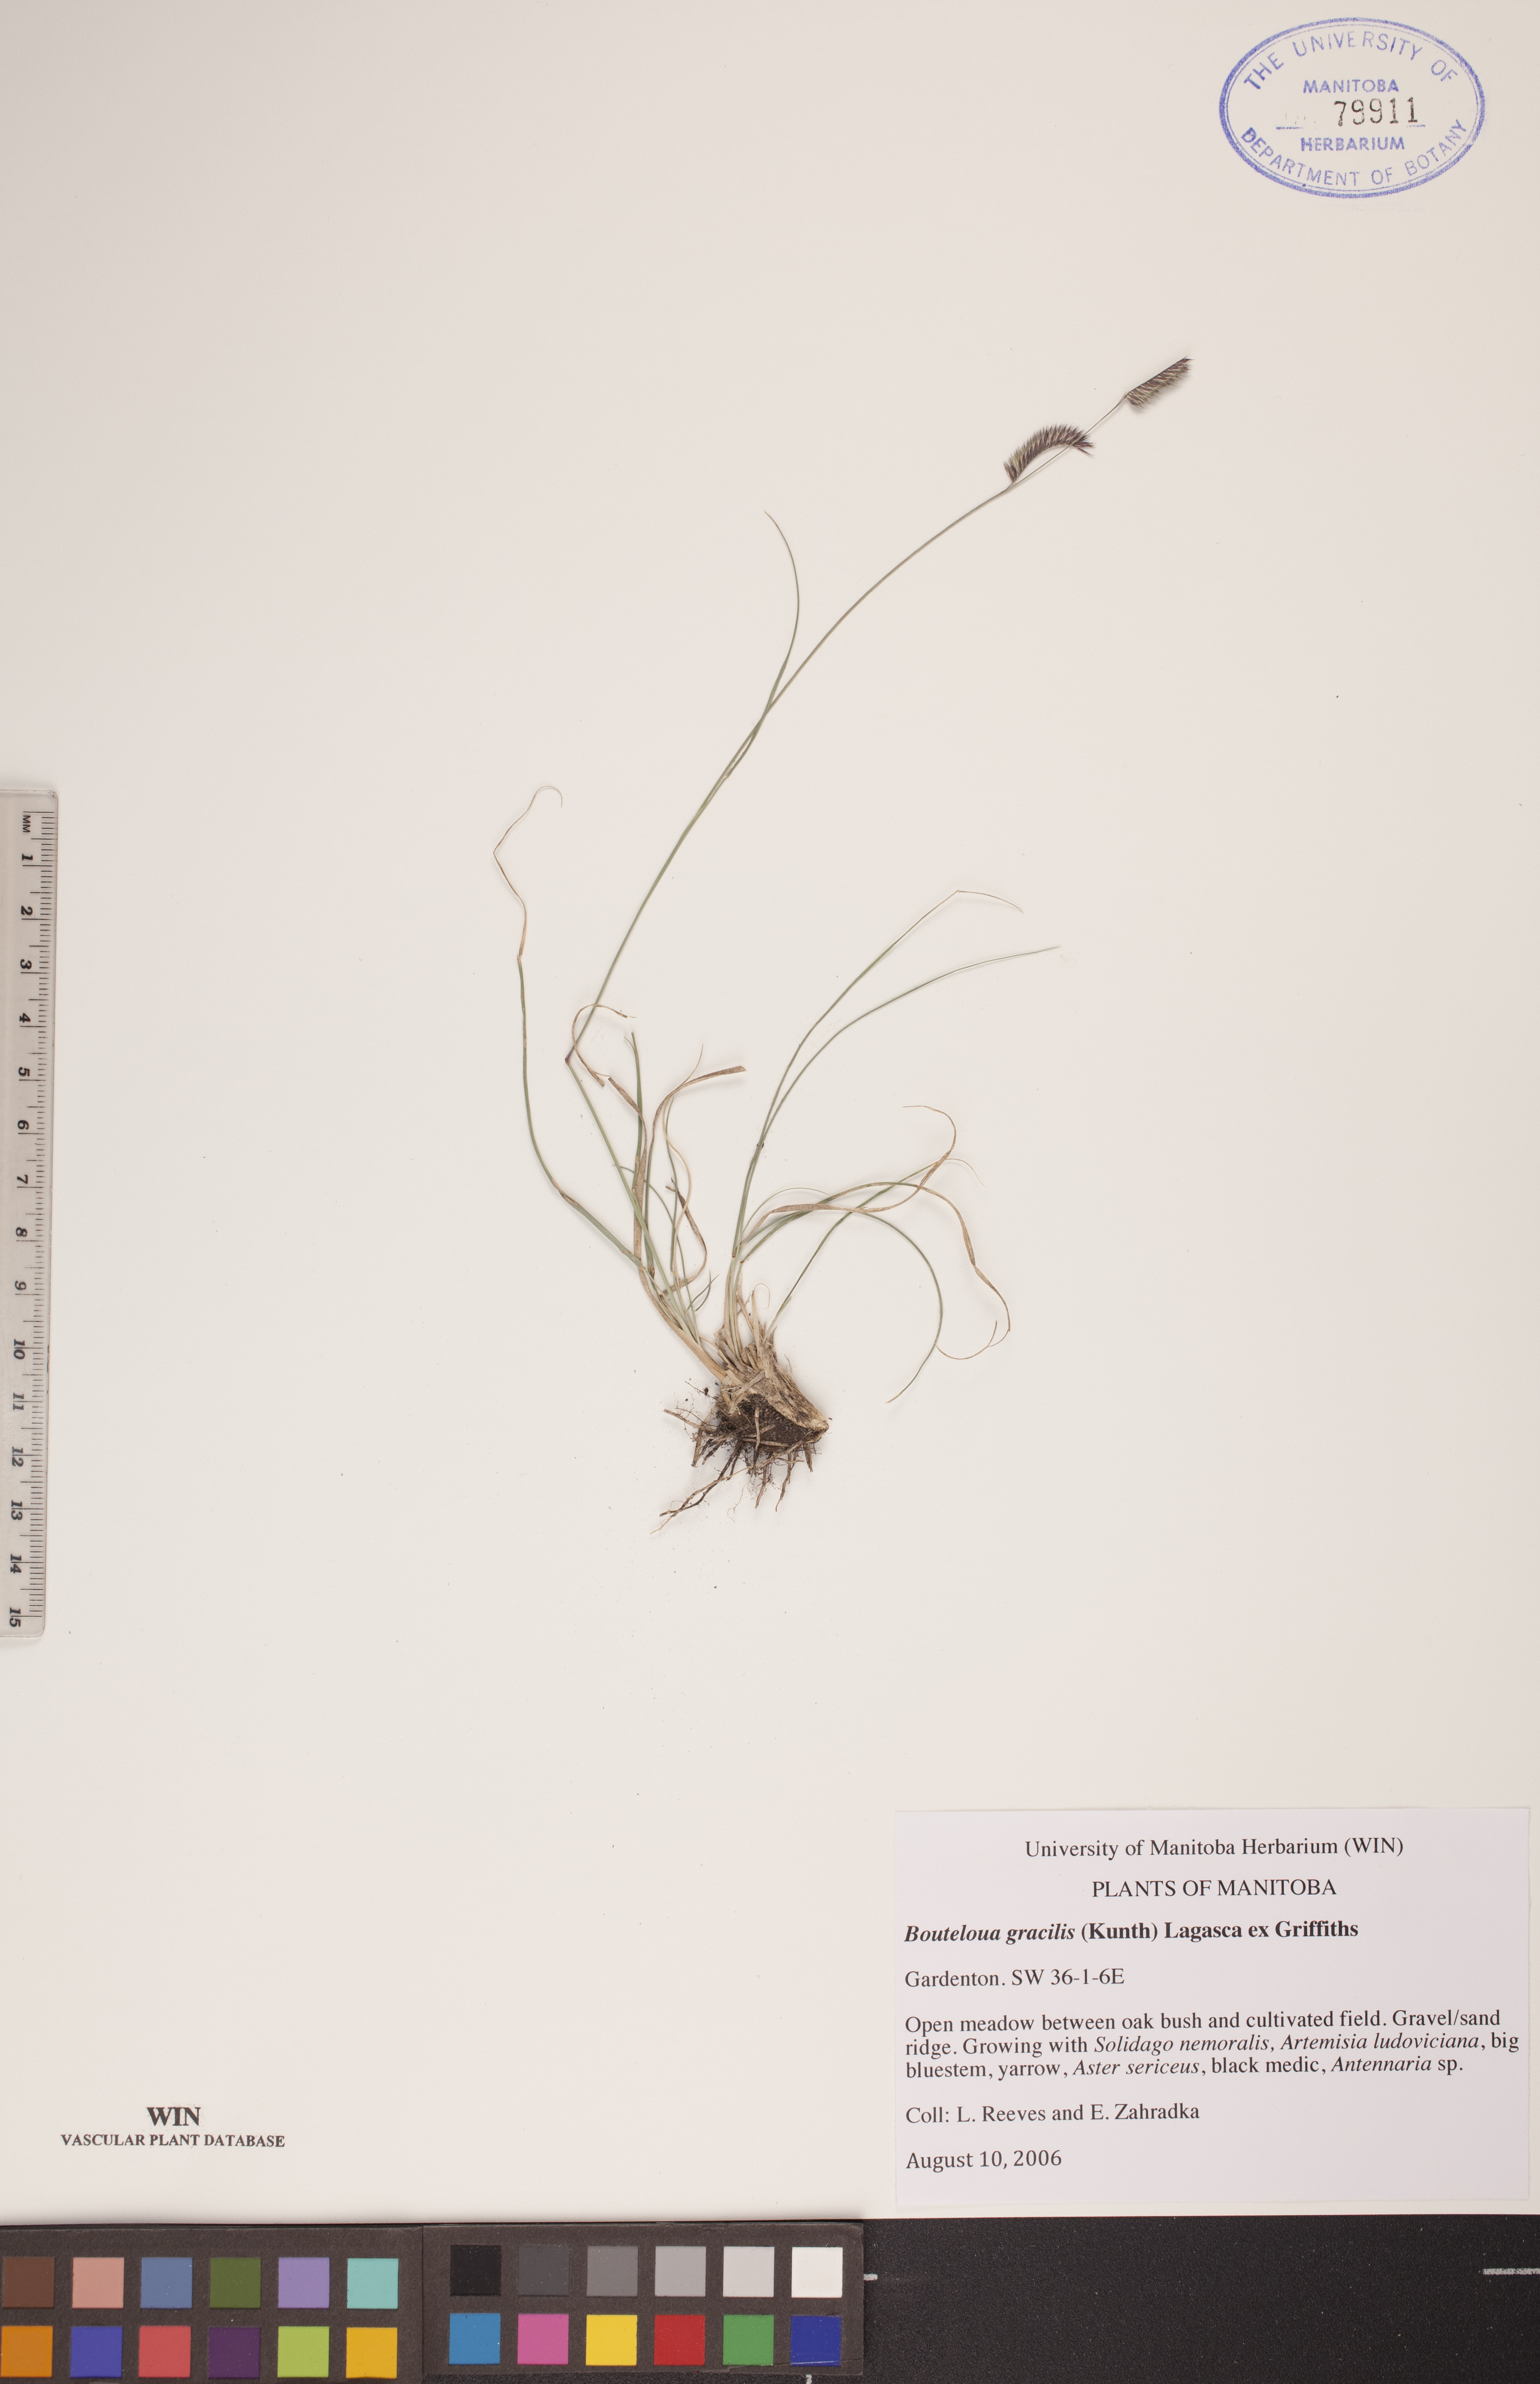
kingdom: Plantae
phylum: Tracheophyta
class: Liliopsida
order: Poales
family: Poaceae
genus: Bouteloua
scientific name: Bouteloua gracilis
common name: Blue grama
